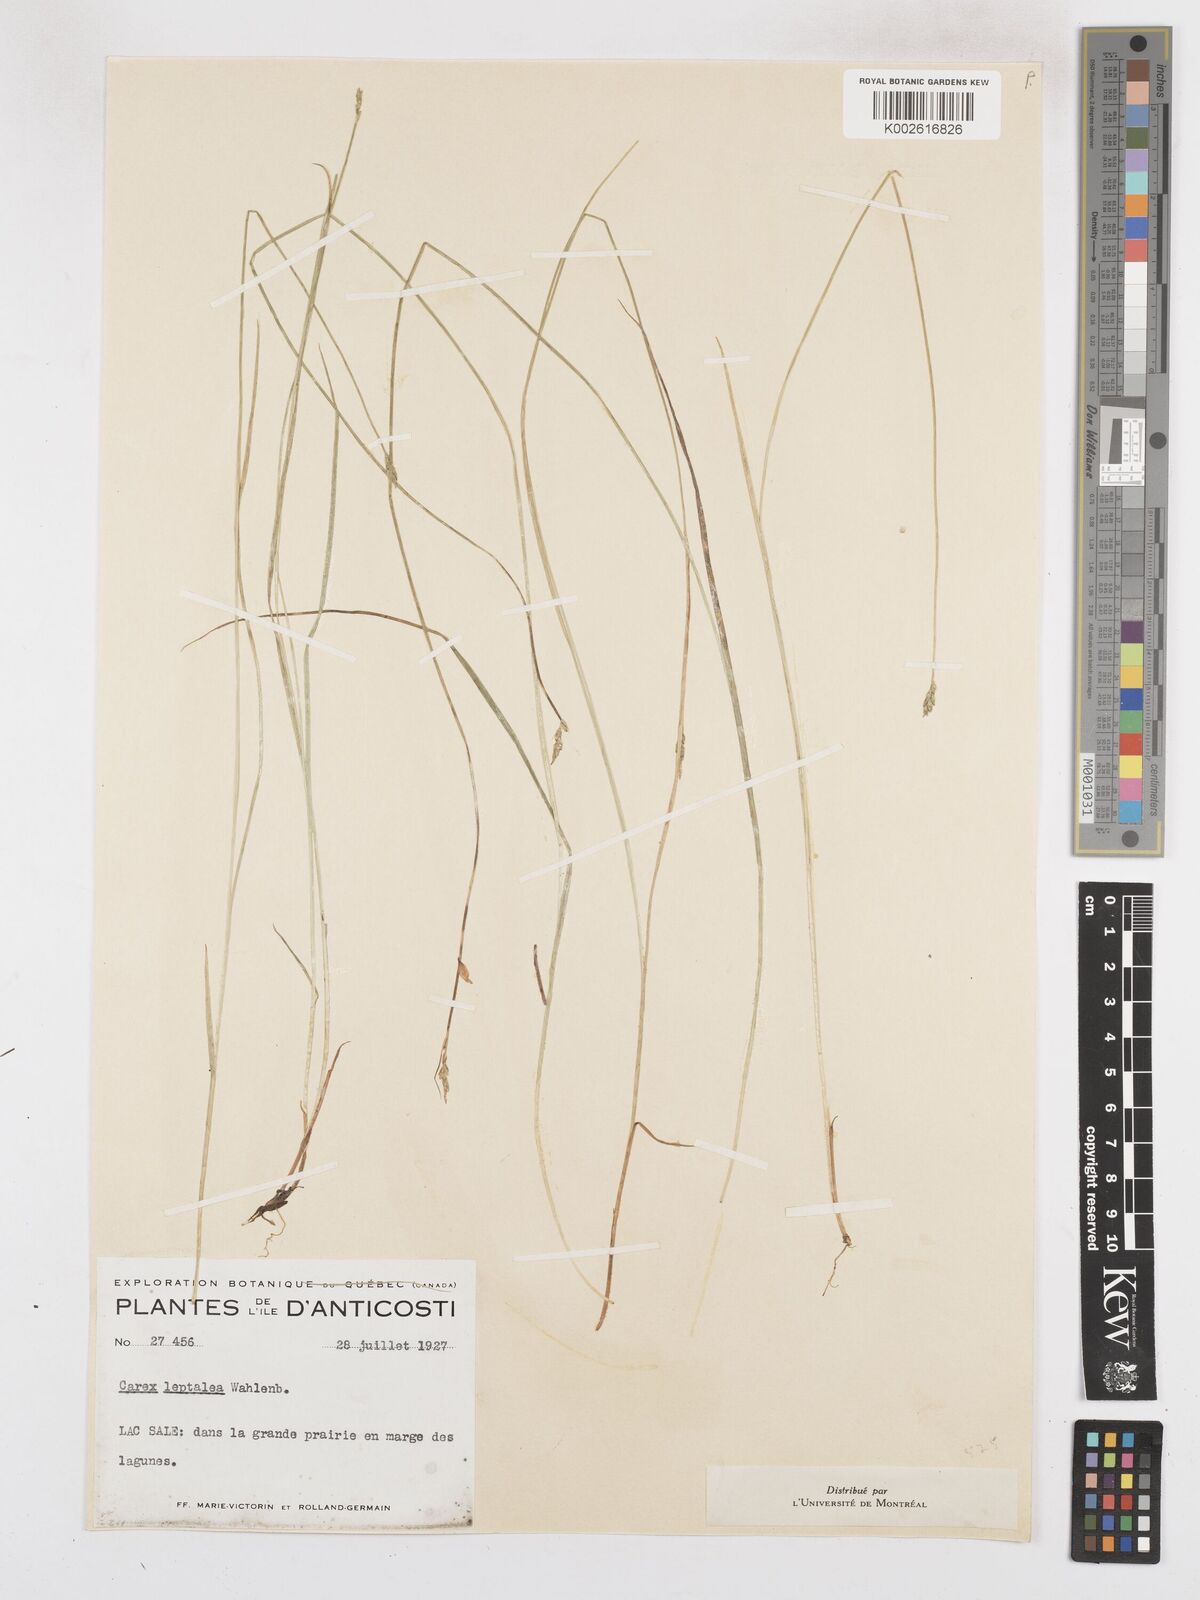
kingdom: Plantae
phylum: Tracheophyta
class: Liliopsida
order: Poales
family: Cyperaceae
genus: Carex
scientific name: Carex leptalea
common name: Bristly-stalked sedge
